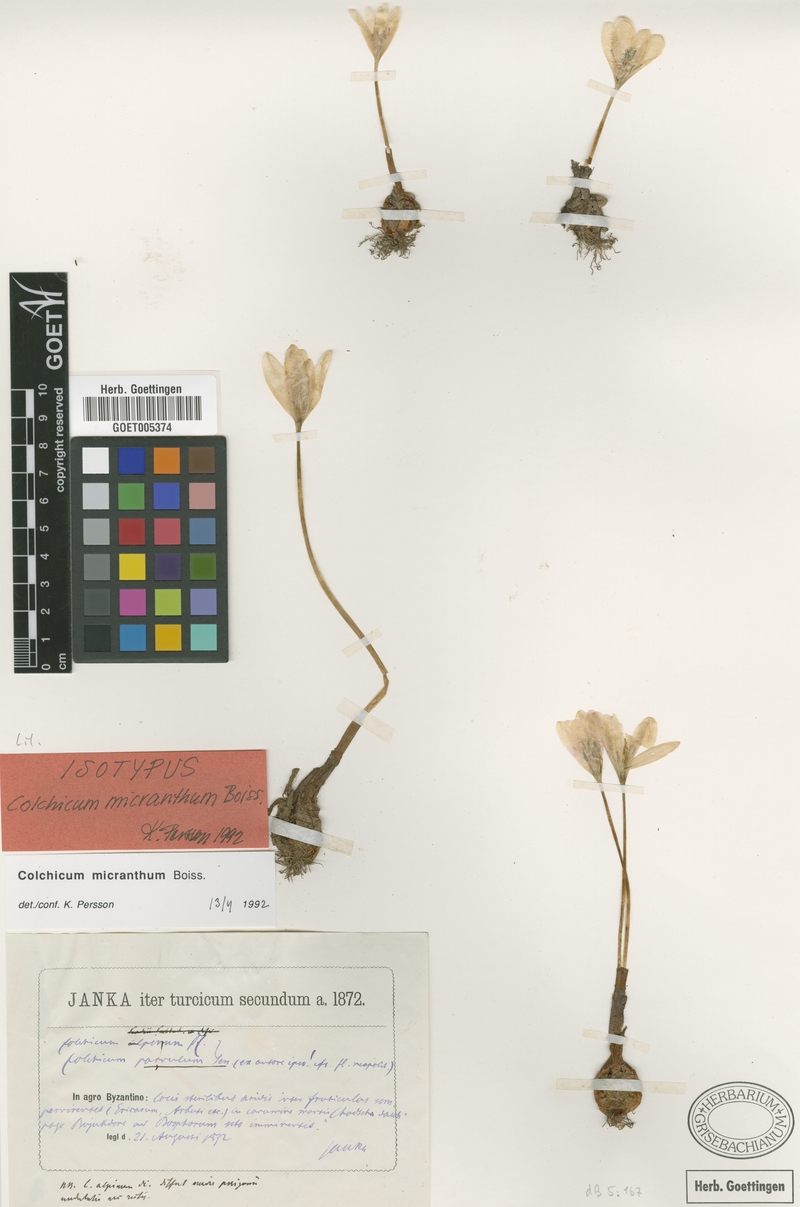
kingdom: Plantae
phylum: Tracheophyta
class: Liliopsida
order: Liliales
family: Colchicaceae
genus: Colchicum
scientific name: Colchicum micranthum
